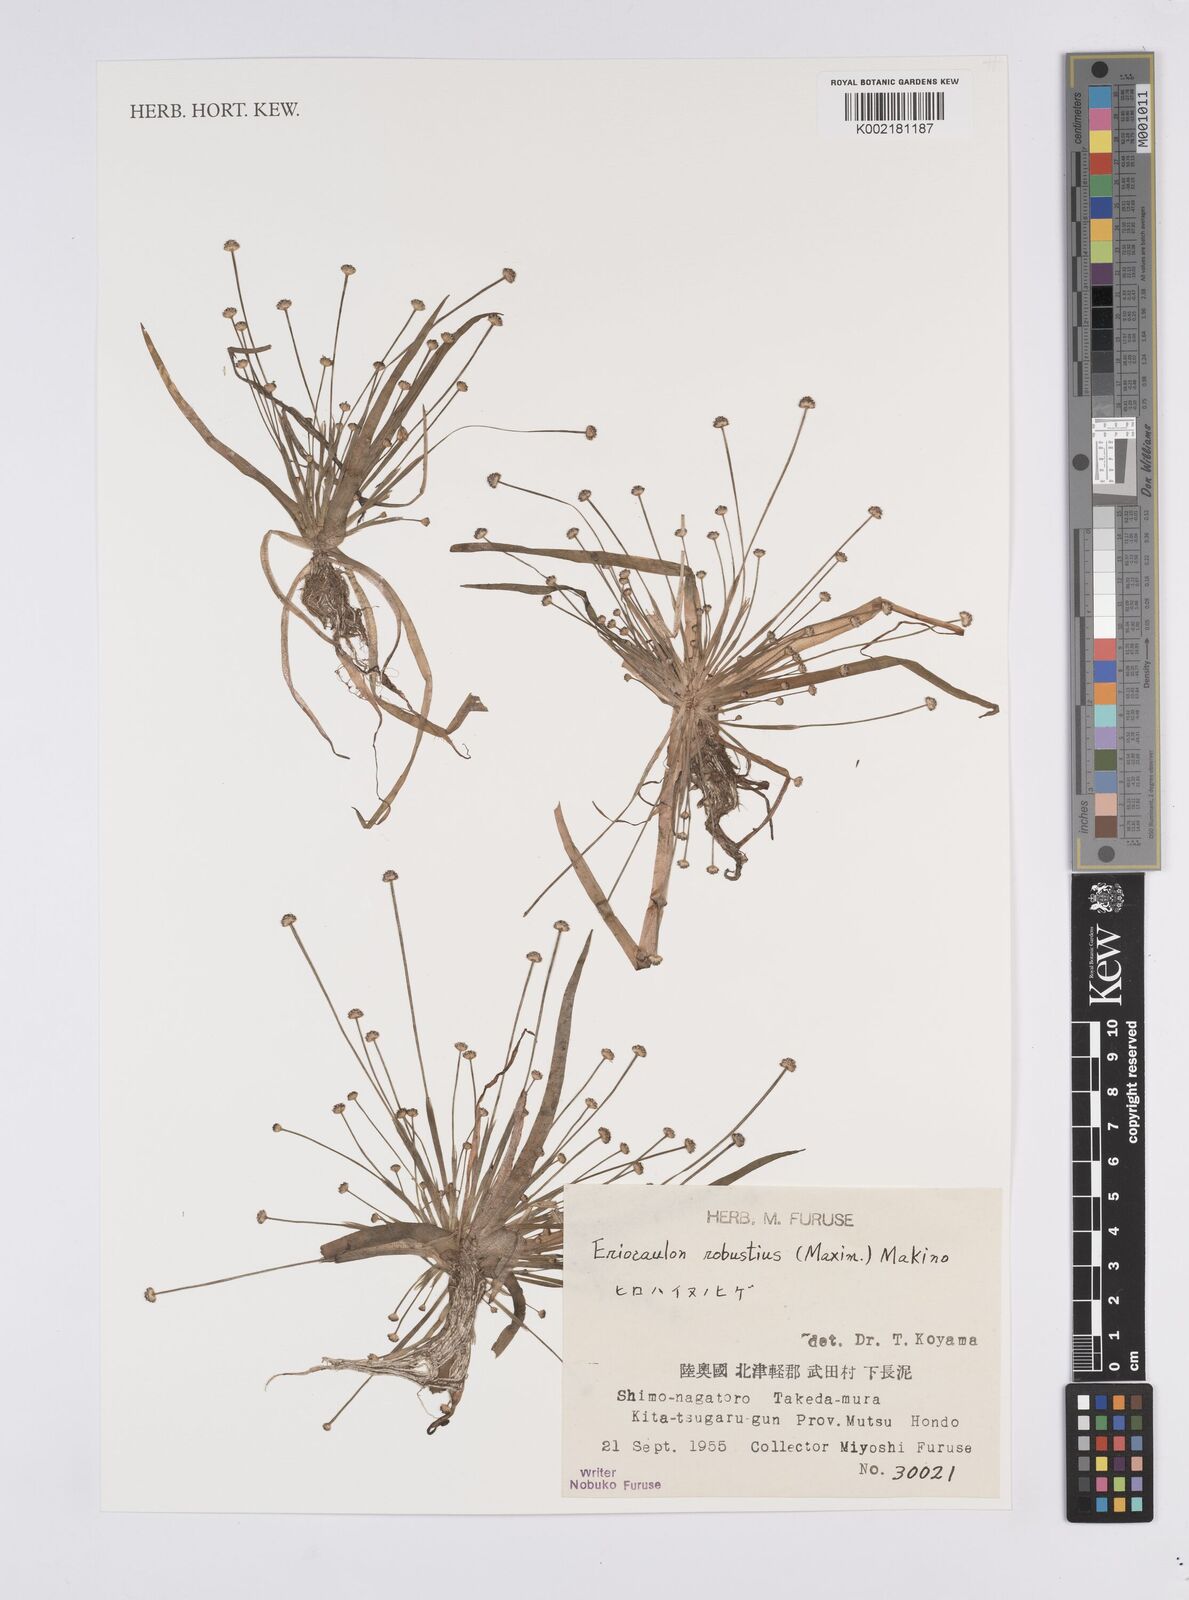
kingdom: Plantae
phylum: Tracheophyta
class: Liliopsida
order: Poales
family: Eriocaulaceae
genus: Eriocaulon
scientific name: Eriocaulon alpestre
